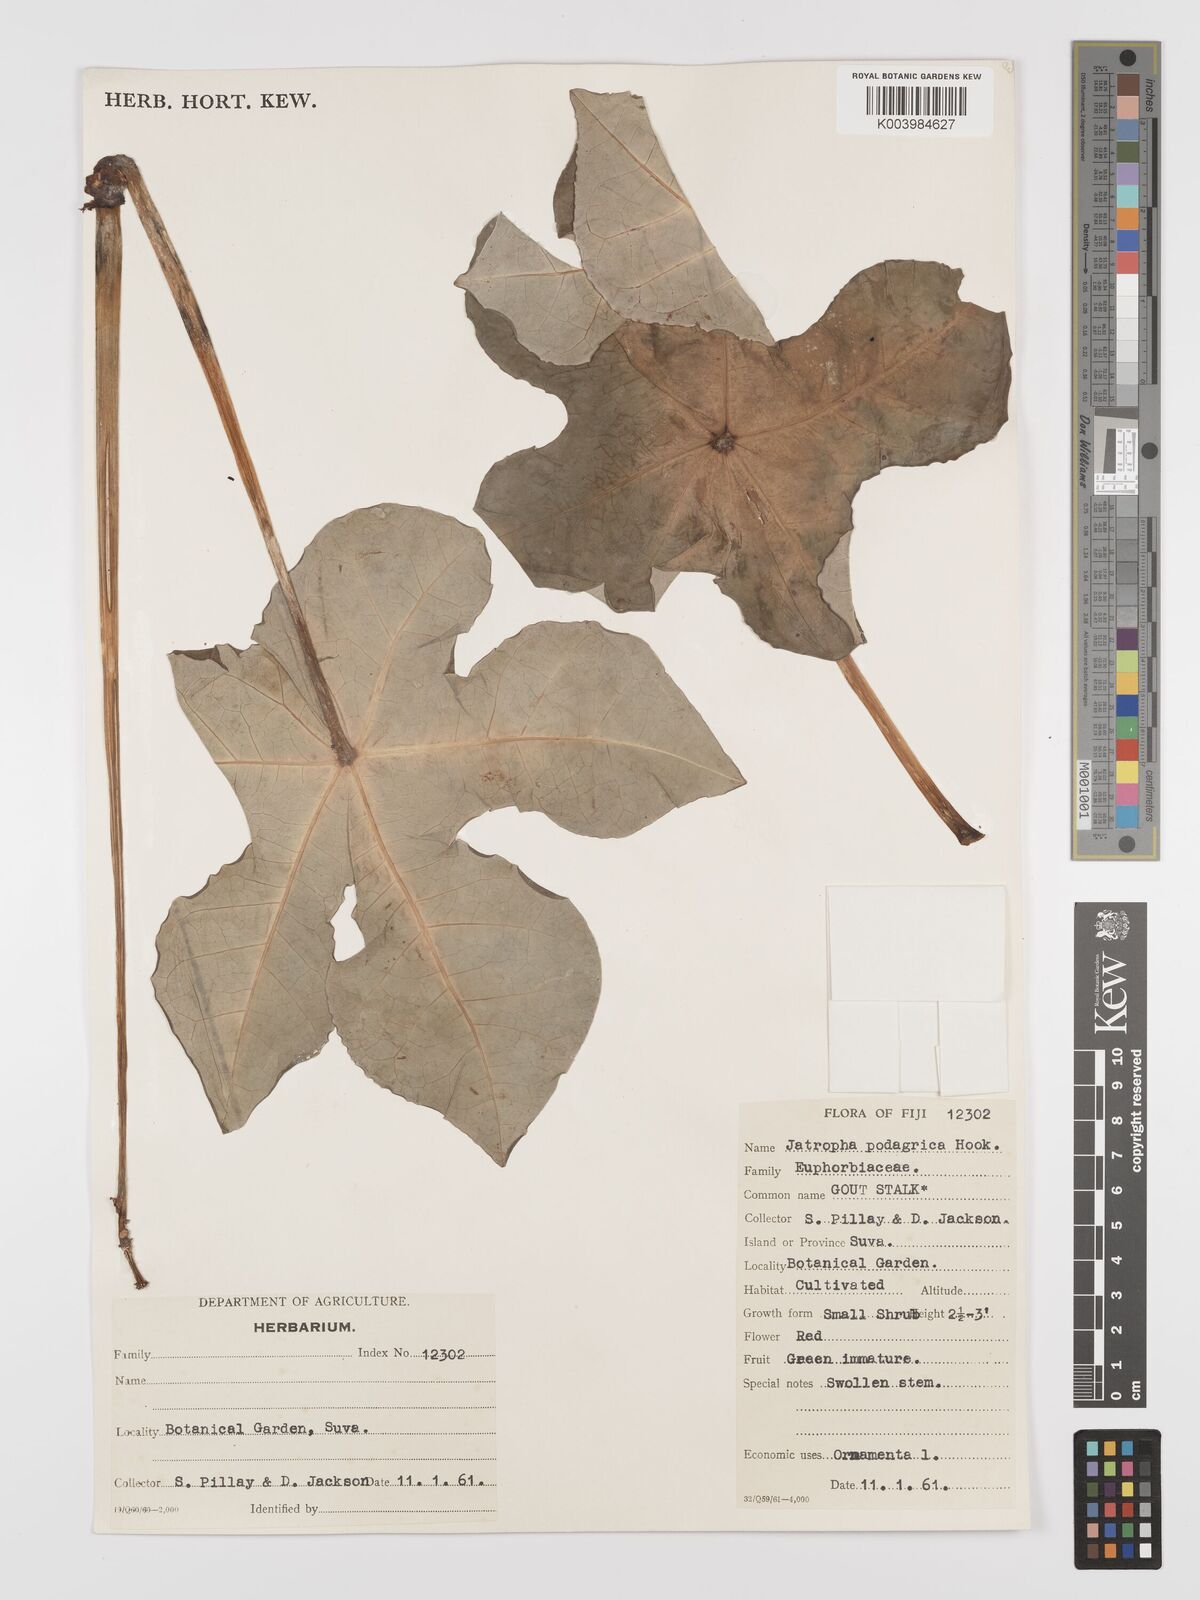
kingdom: Plantae
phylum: Tracheophyta
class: Magnoliopsida
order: Malpighiales
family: Euphorbiaceae
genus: Jatropha
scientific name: Jatropha podagrica
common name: Gout stalk
